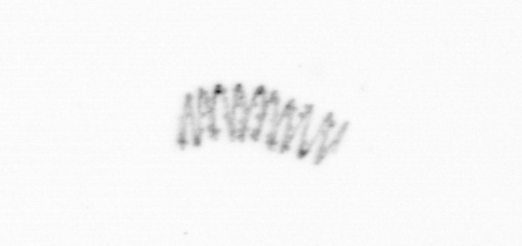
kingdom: Chromista
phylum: Ochrophyta
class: Bacillariophyceae
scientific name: Bacillariophyceae
